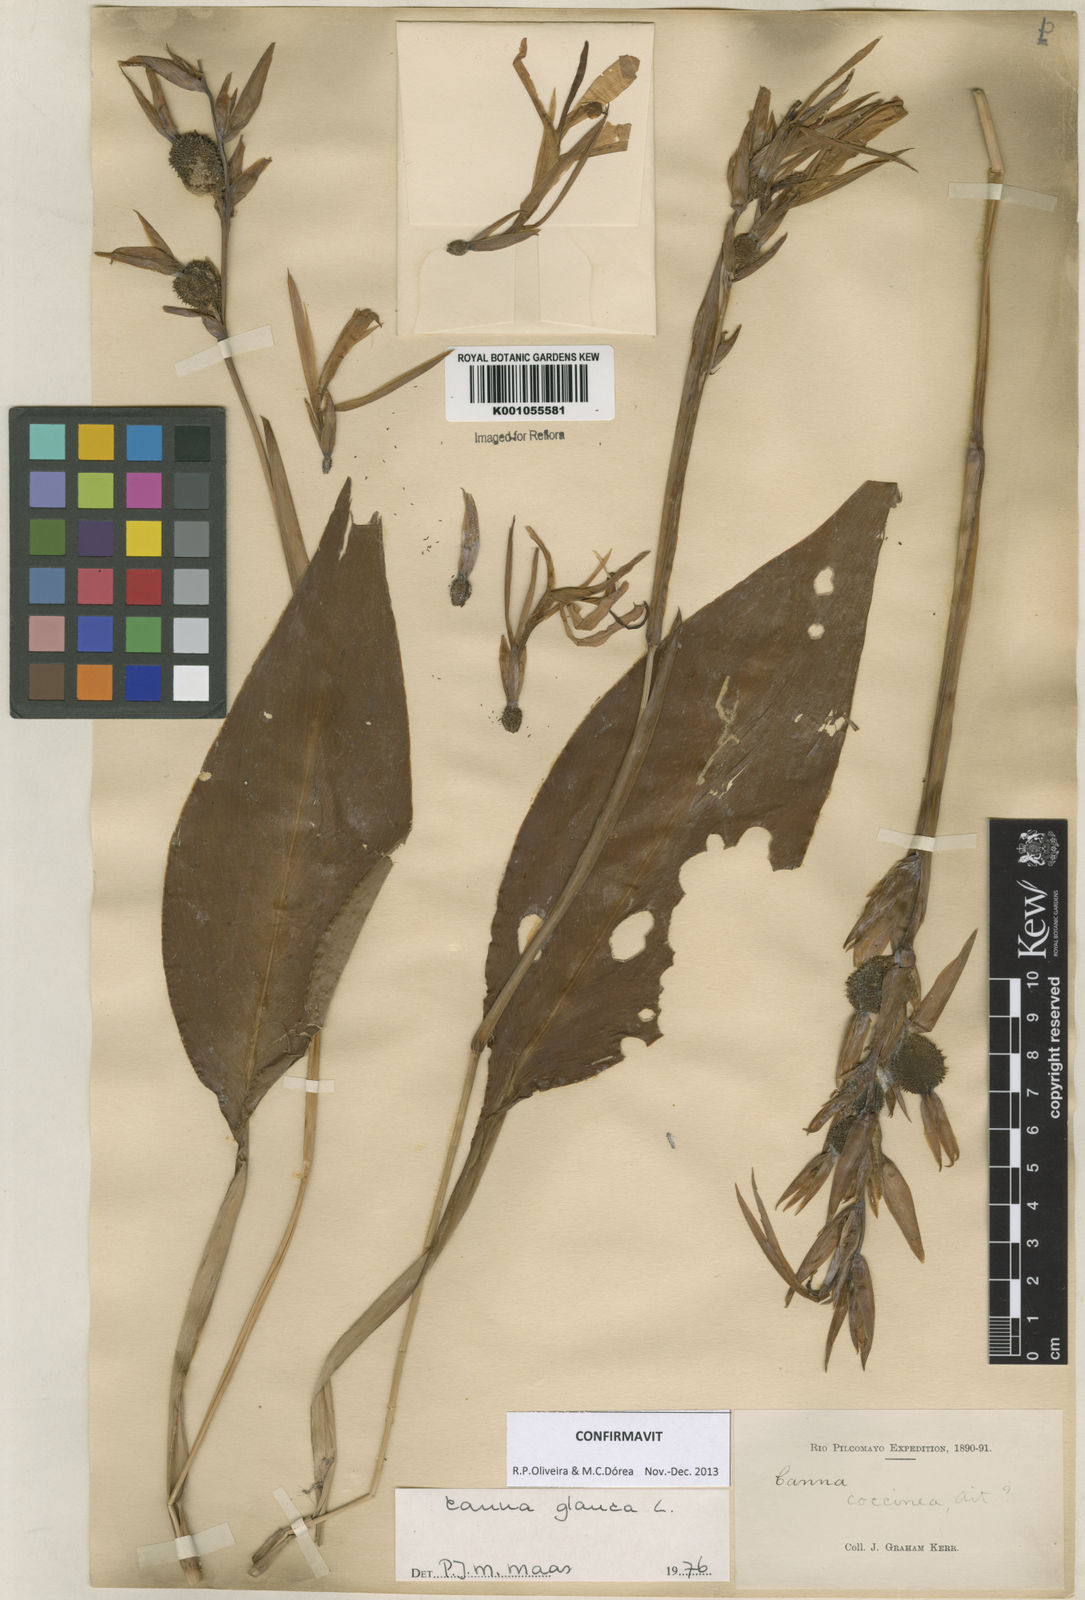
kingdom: Plantae
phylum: Tracheophyta
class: Liliopsida
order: Zingiberales
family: Cannaceae
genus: Canna
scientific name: Canna glauca
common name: Louisiana canna
